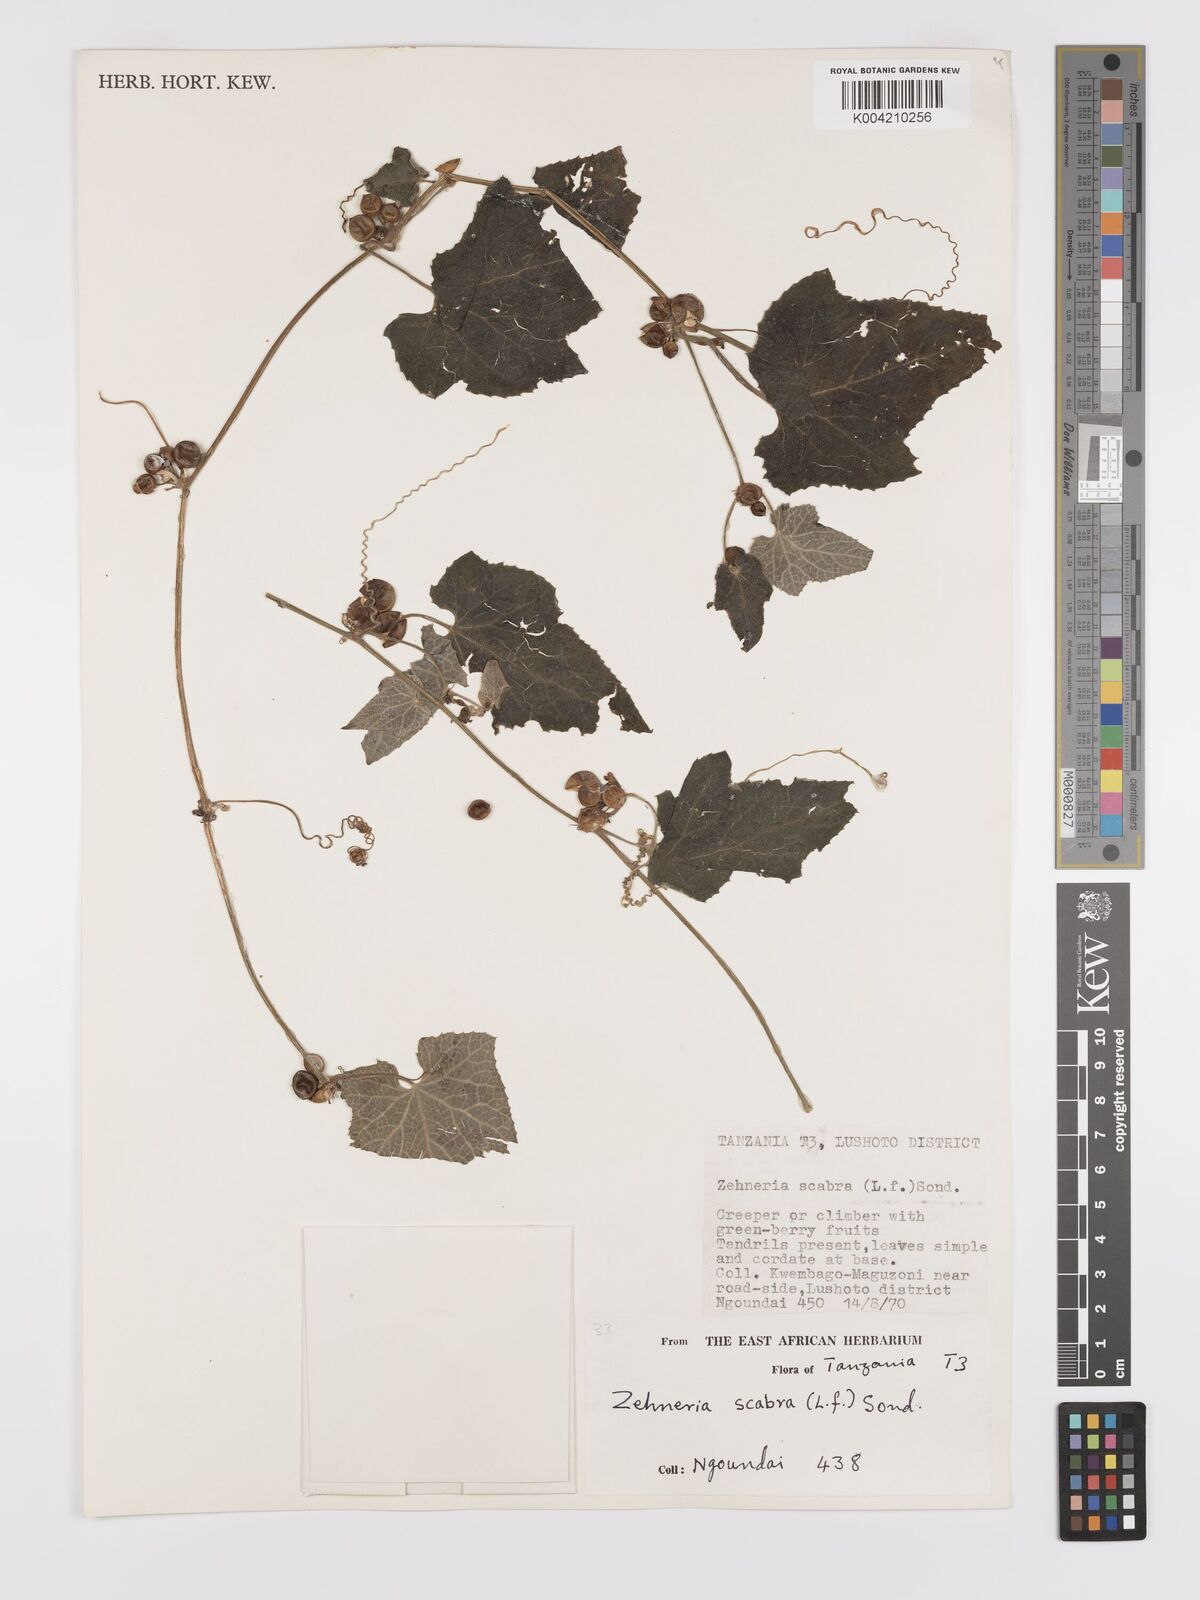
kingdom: Plantae
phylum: Tracheophyta
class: Magnoliopsida
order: Cucurbitales
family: Cucurbitaceae
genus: Zehneria
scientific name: Zehneria scabra
